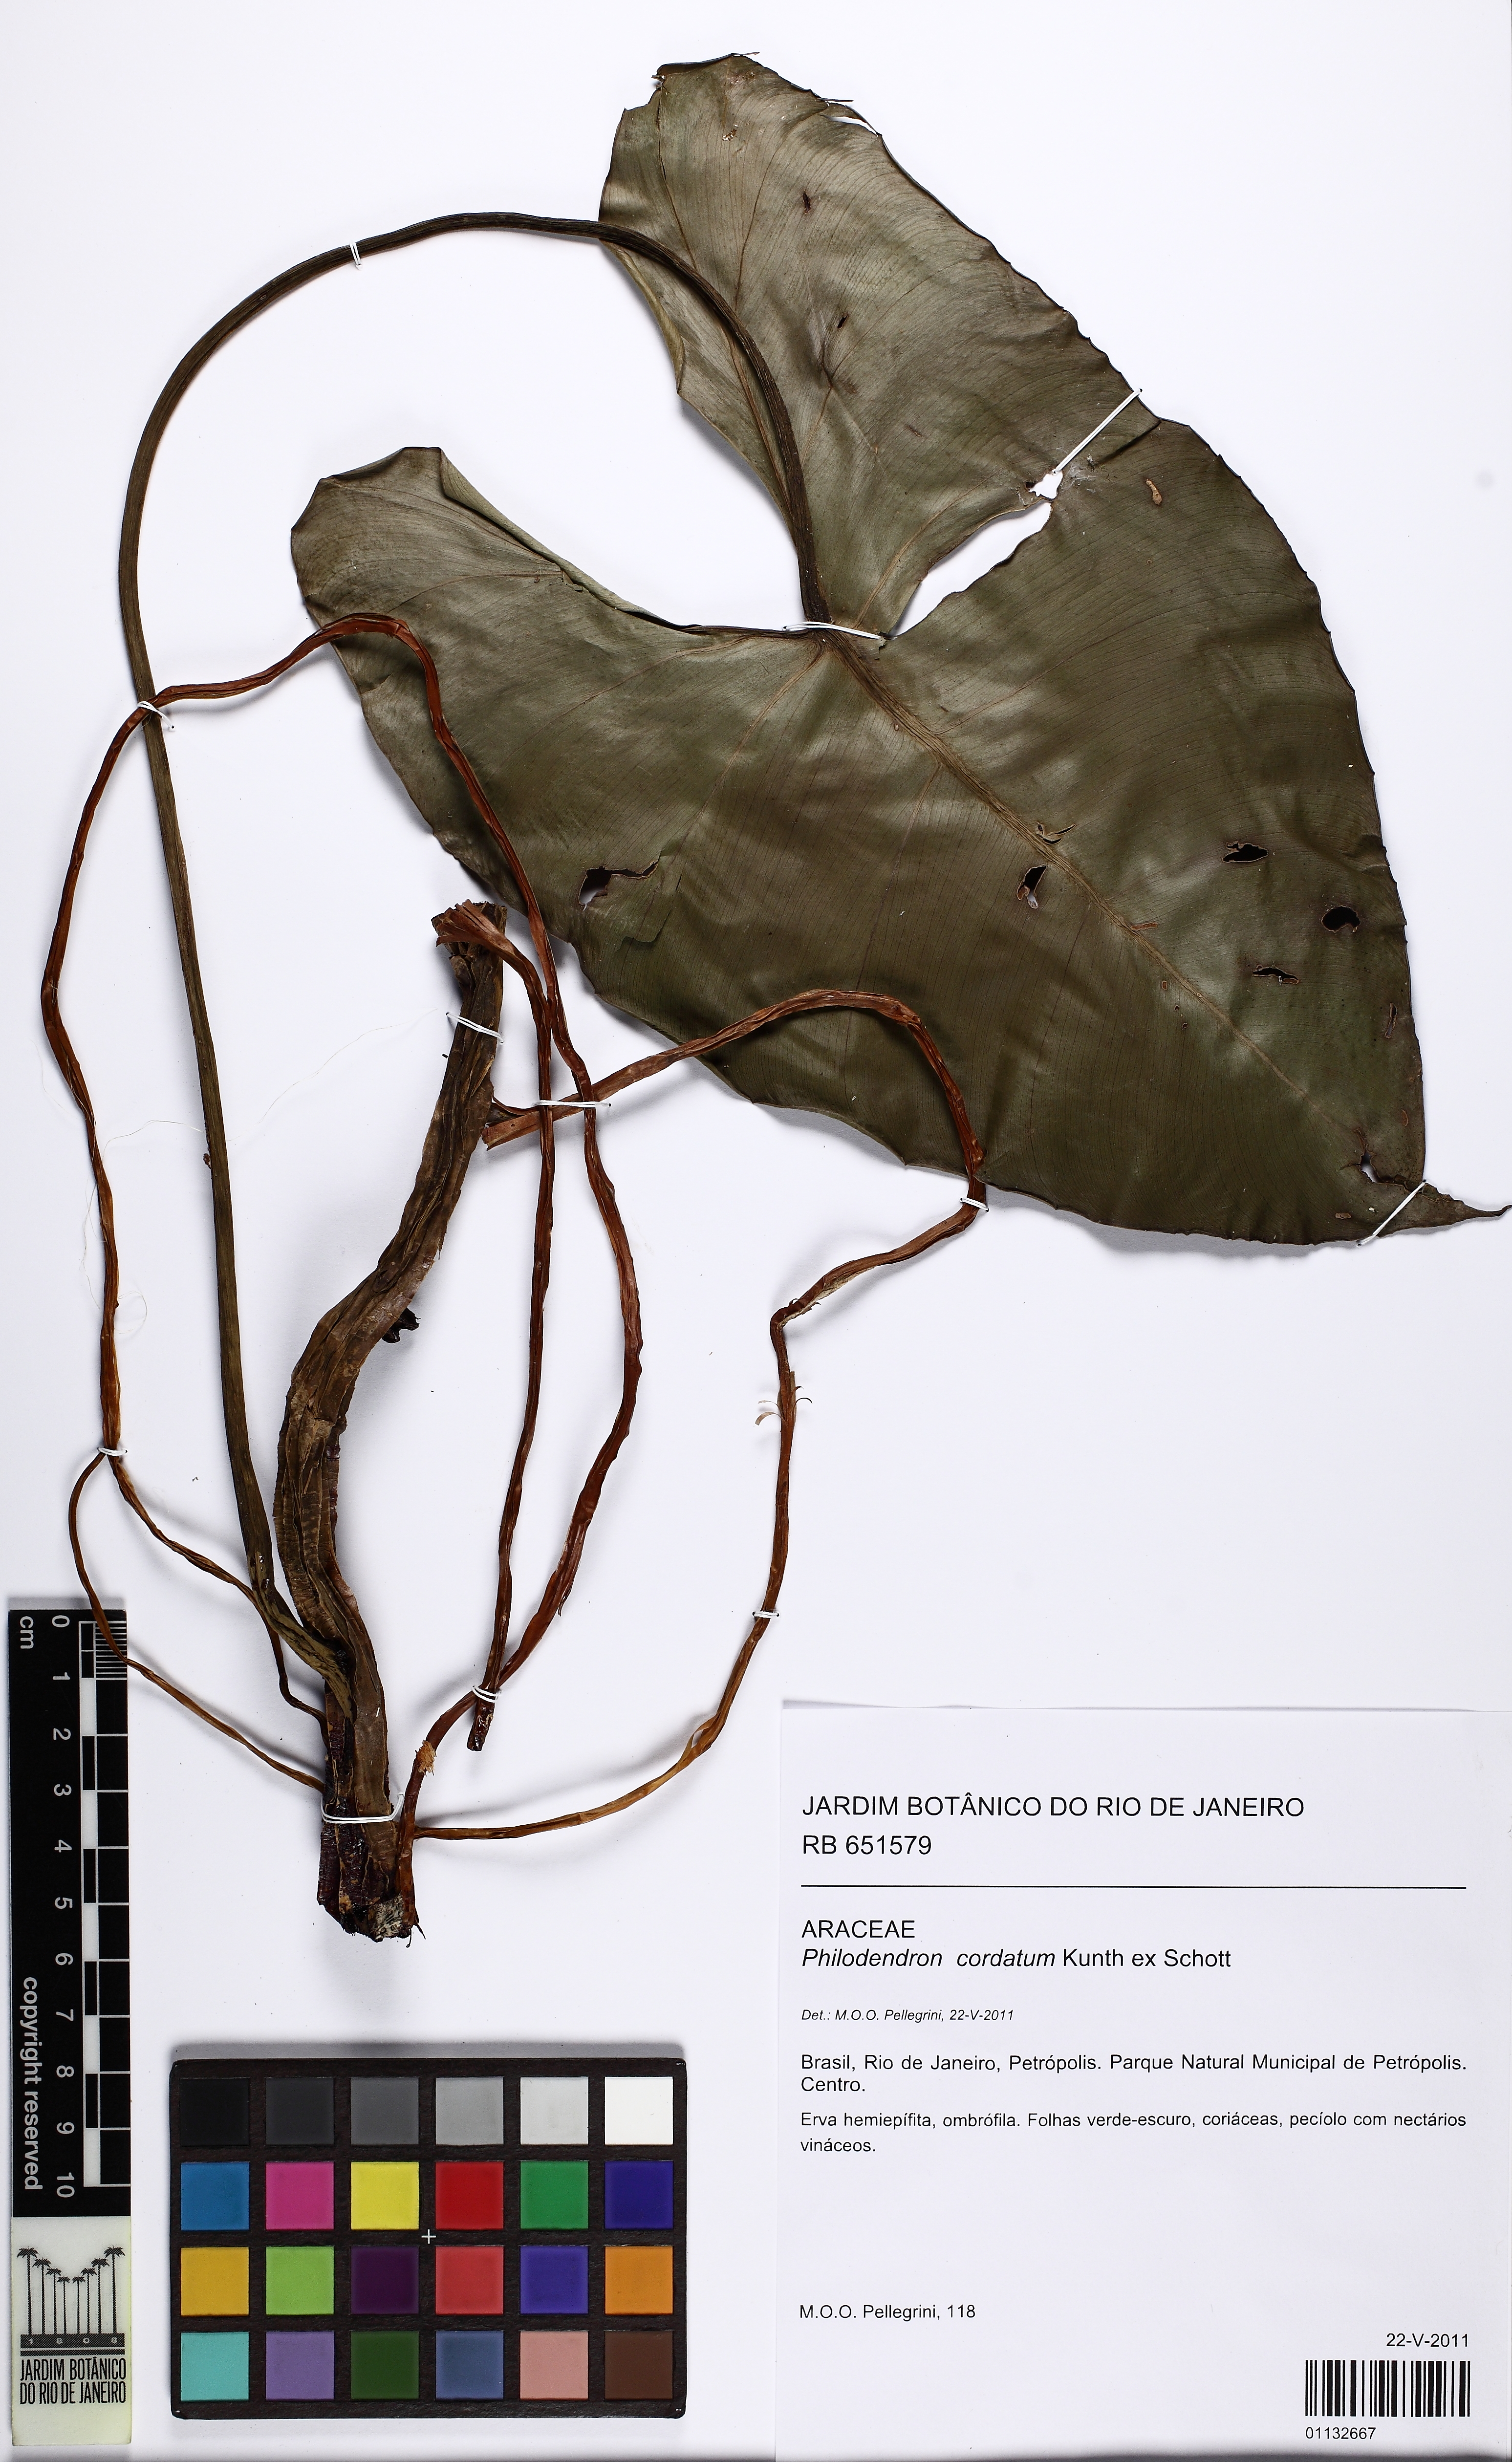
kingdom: Plantae
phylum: Tracheophyta
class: Liliopsida
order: Alismatales
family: Araceae
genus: Philodendron
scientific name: Philodendron cordatum
